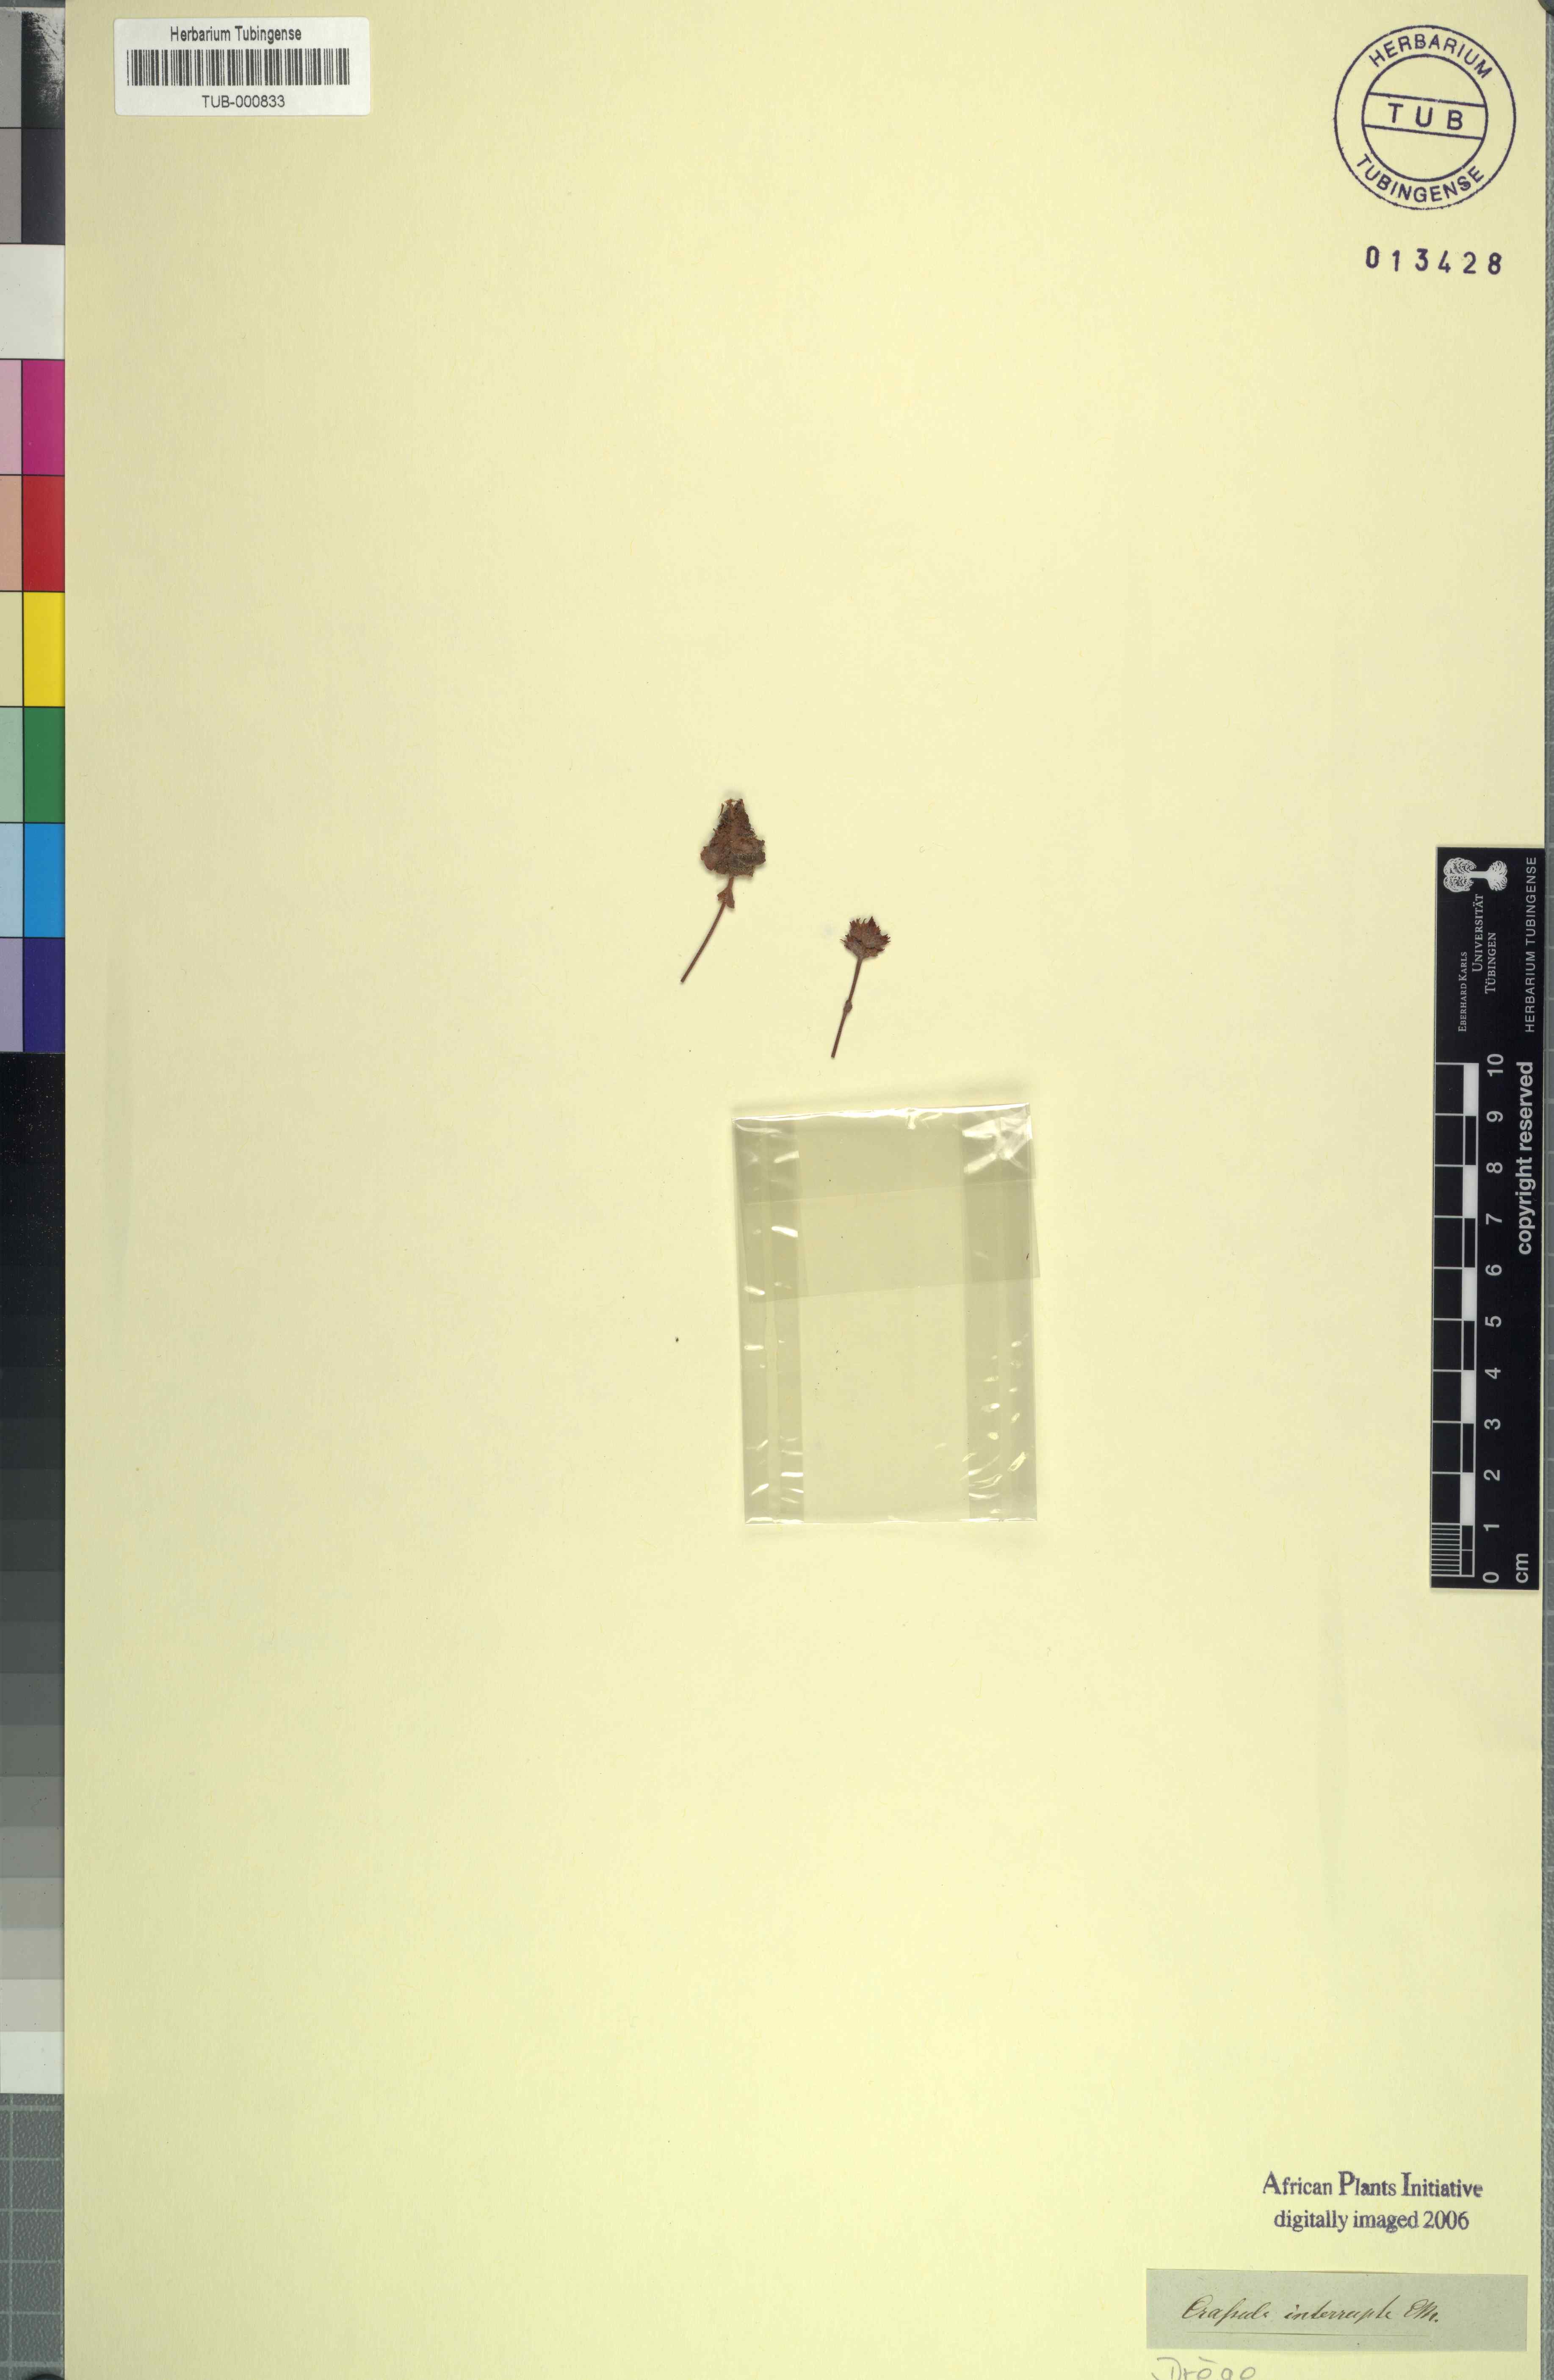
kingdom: Plantae
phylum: Tracheophyta
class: Magnoliopsida
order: Saxifragales
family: Crassulaceae
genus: Crassula
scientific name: Crassula tomentosa
